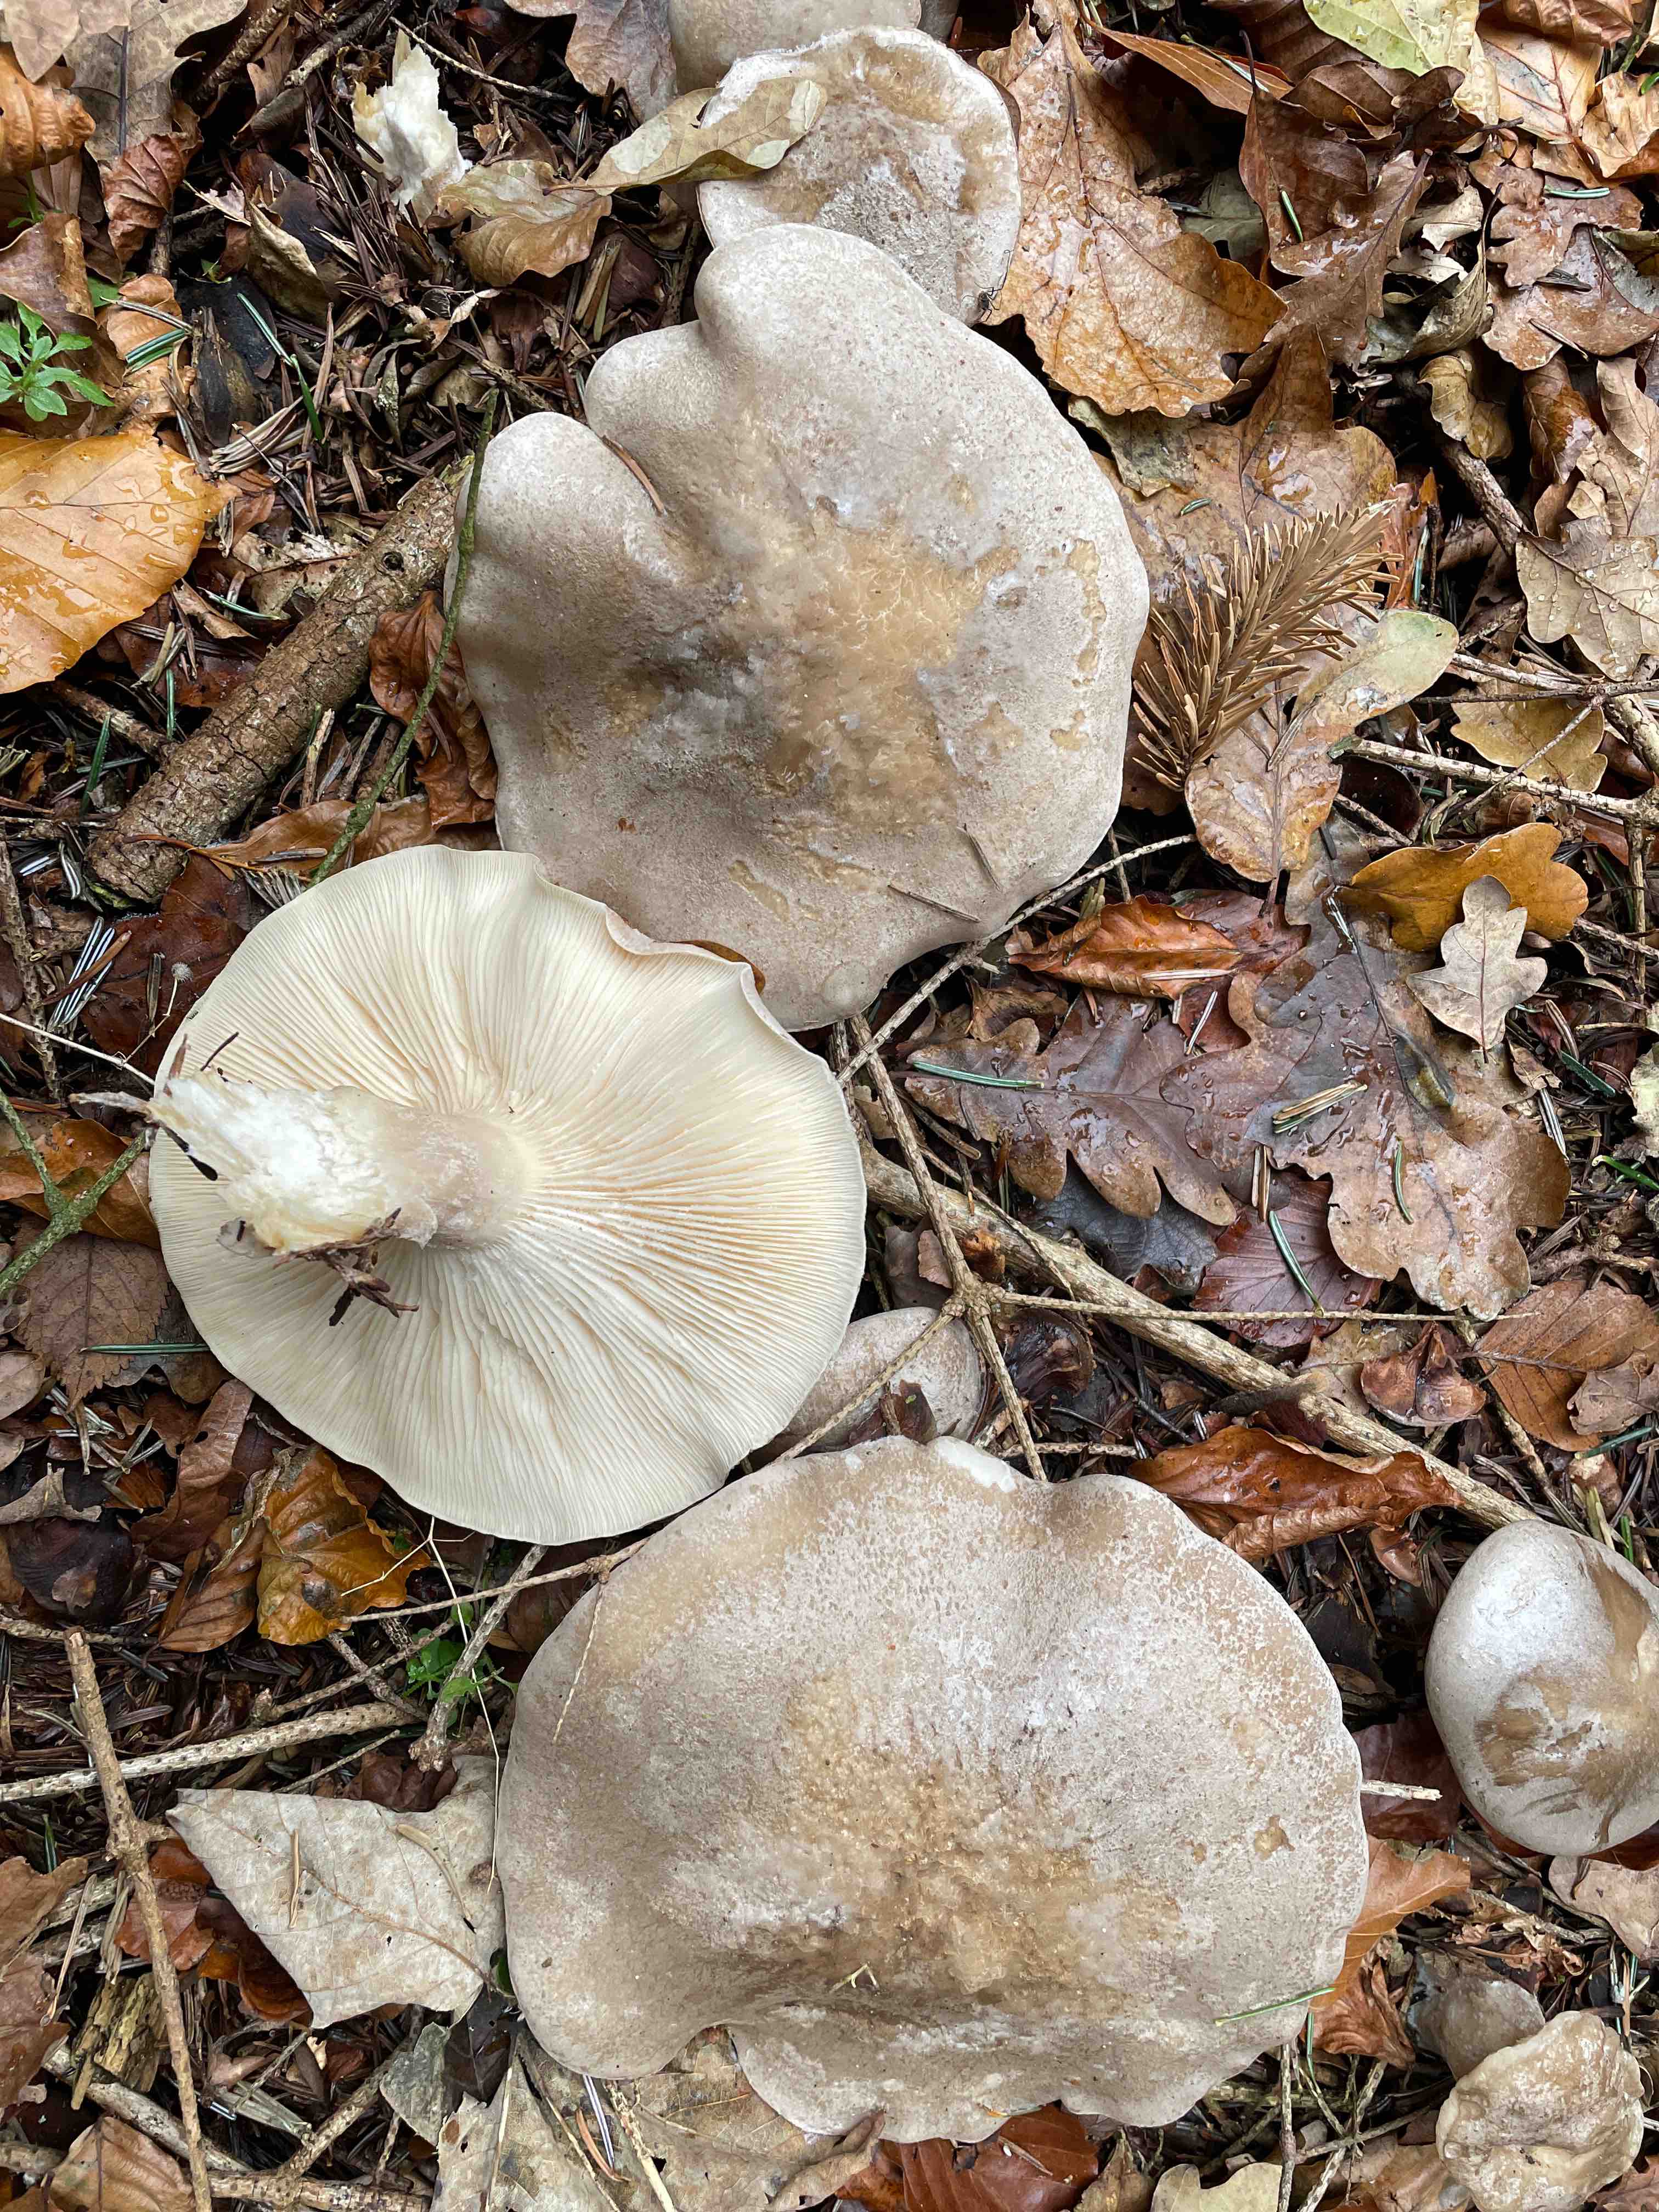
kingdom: Fungi
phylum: Basidiomycota
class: Agaricomycetes
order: Agaricales
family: Tricholomataceae
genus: Clitocybe
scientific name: Clitocybe nebularis
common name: tåge-tragthat
